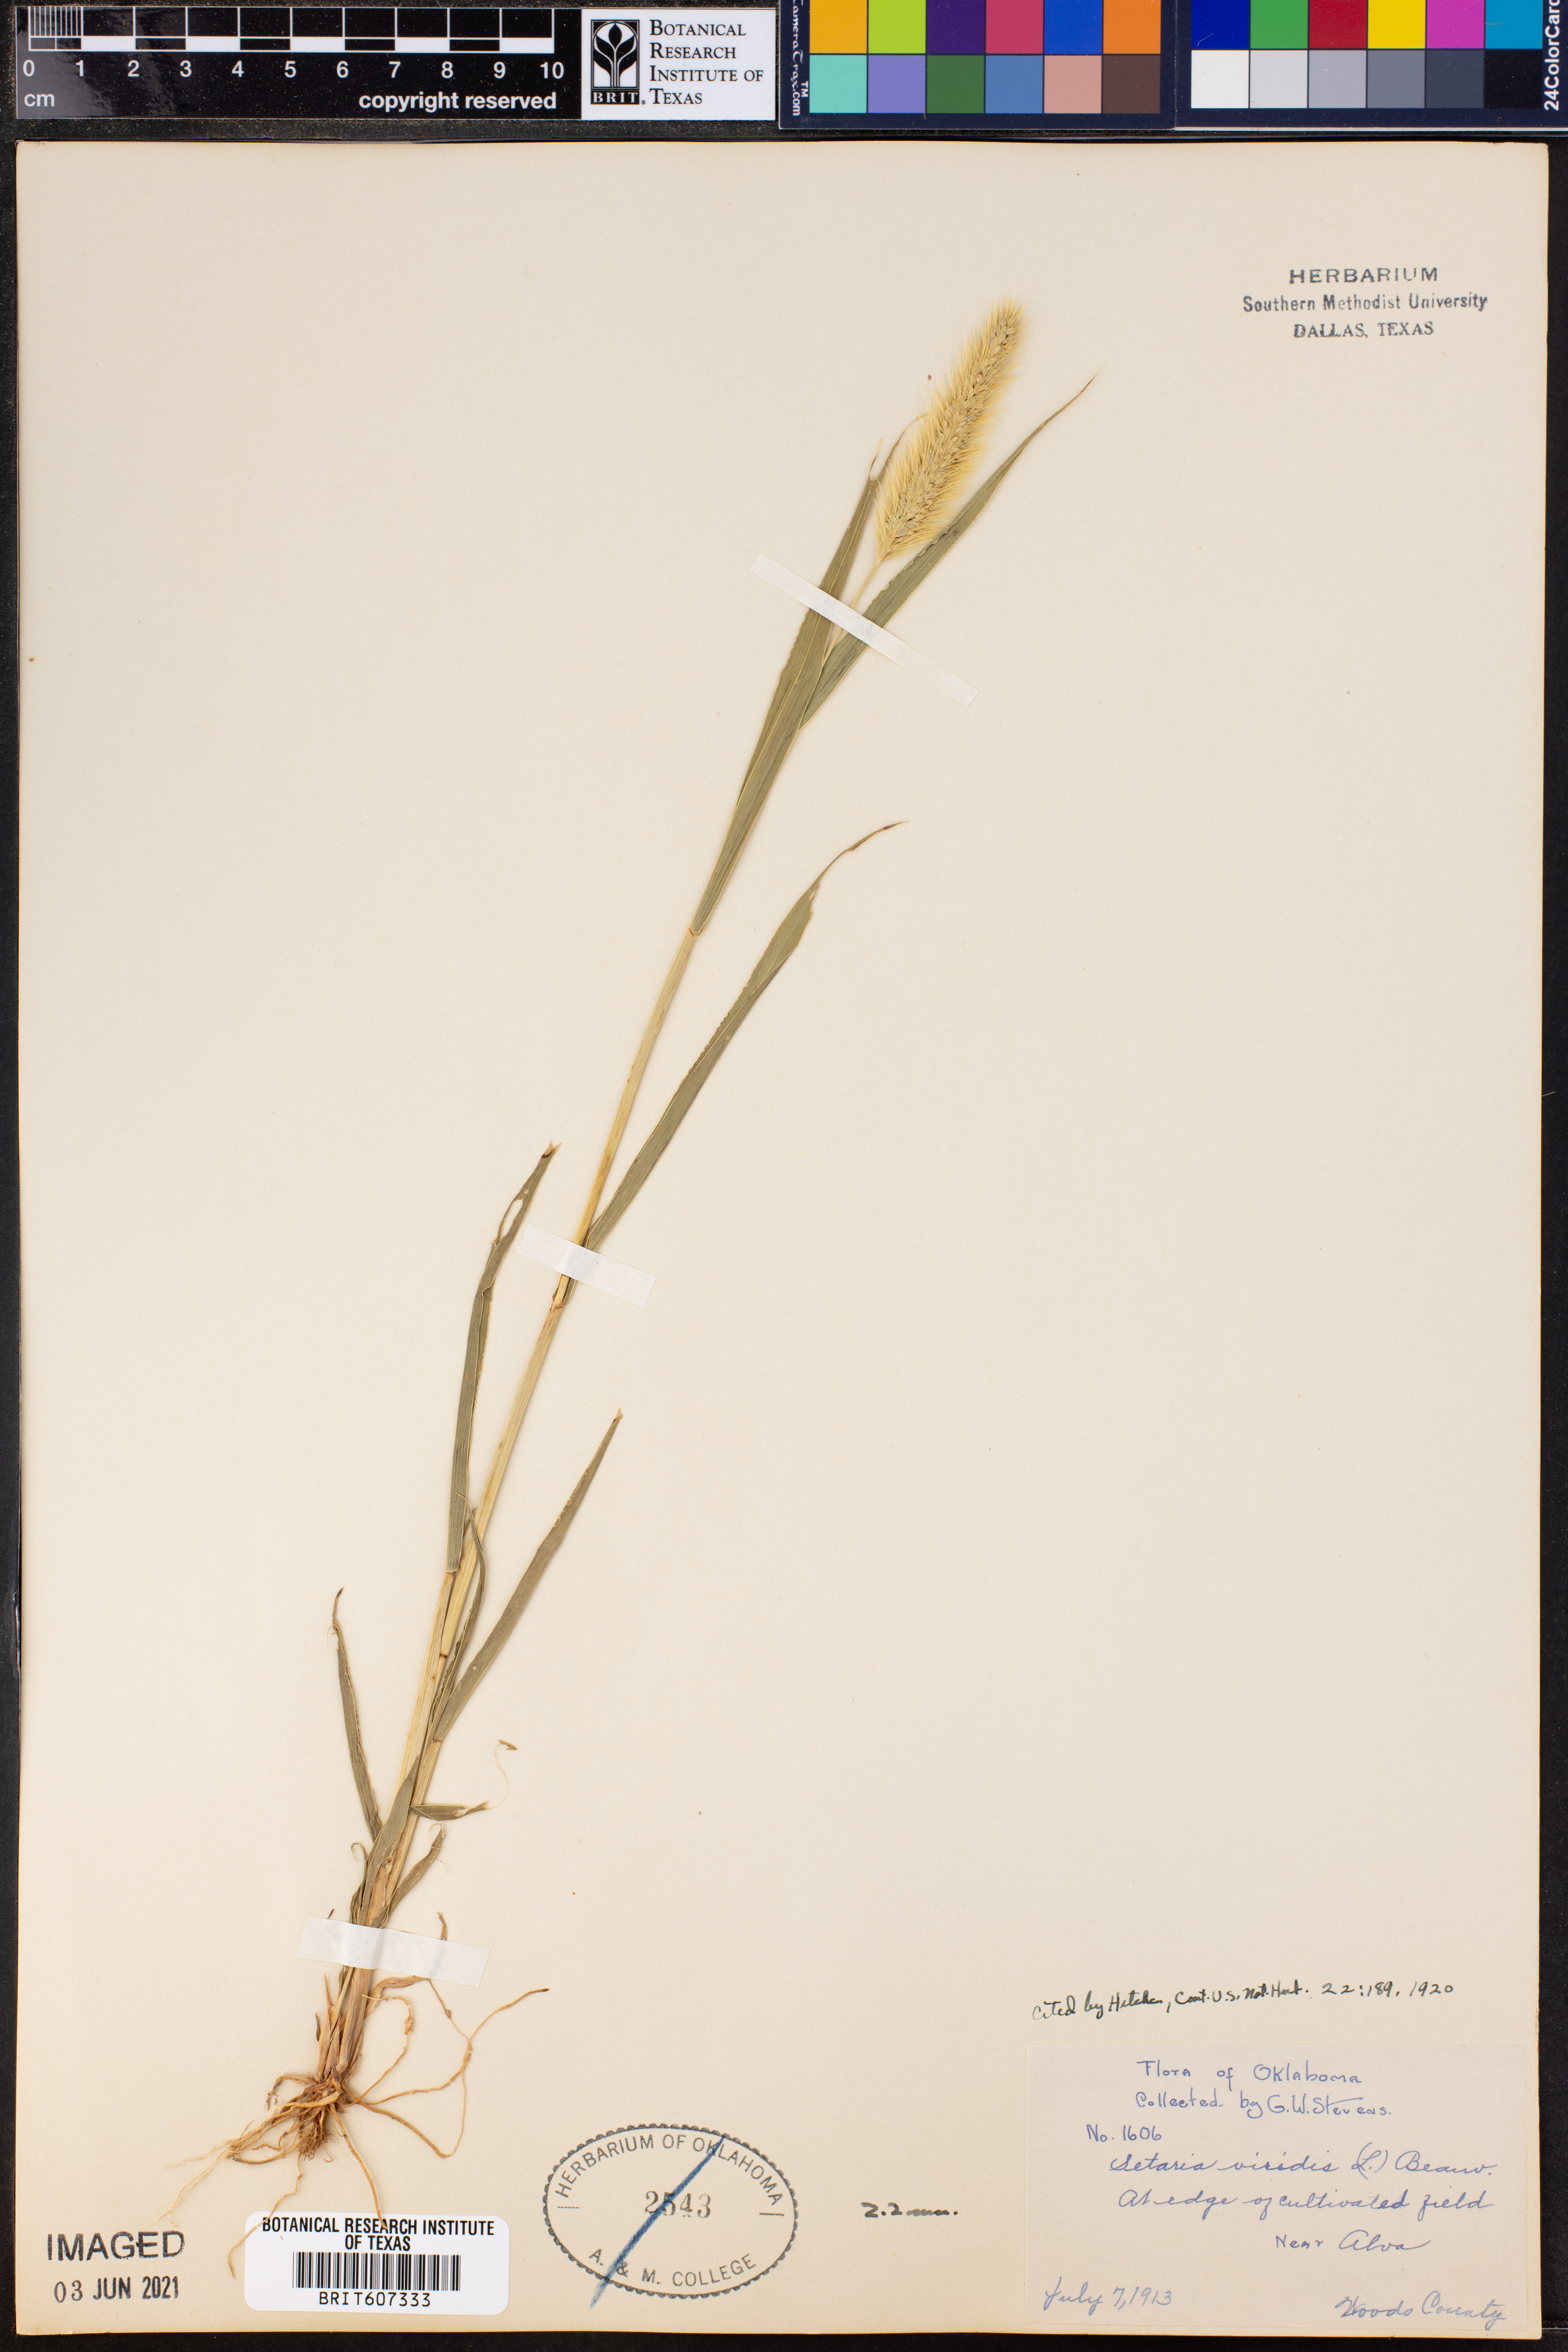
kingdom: Plantae
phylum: Tracheophyta
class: Liliopsida
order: Poales
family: Poaceae
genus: Setaria
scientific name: Setaria viridis
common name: Green bristlegrass
